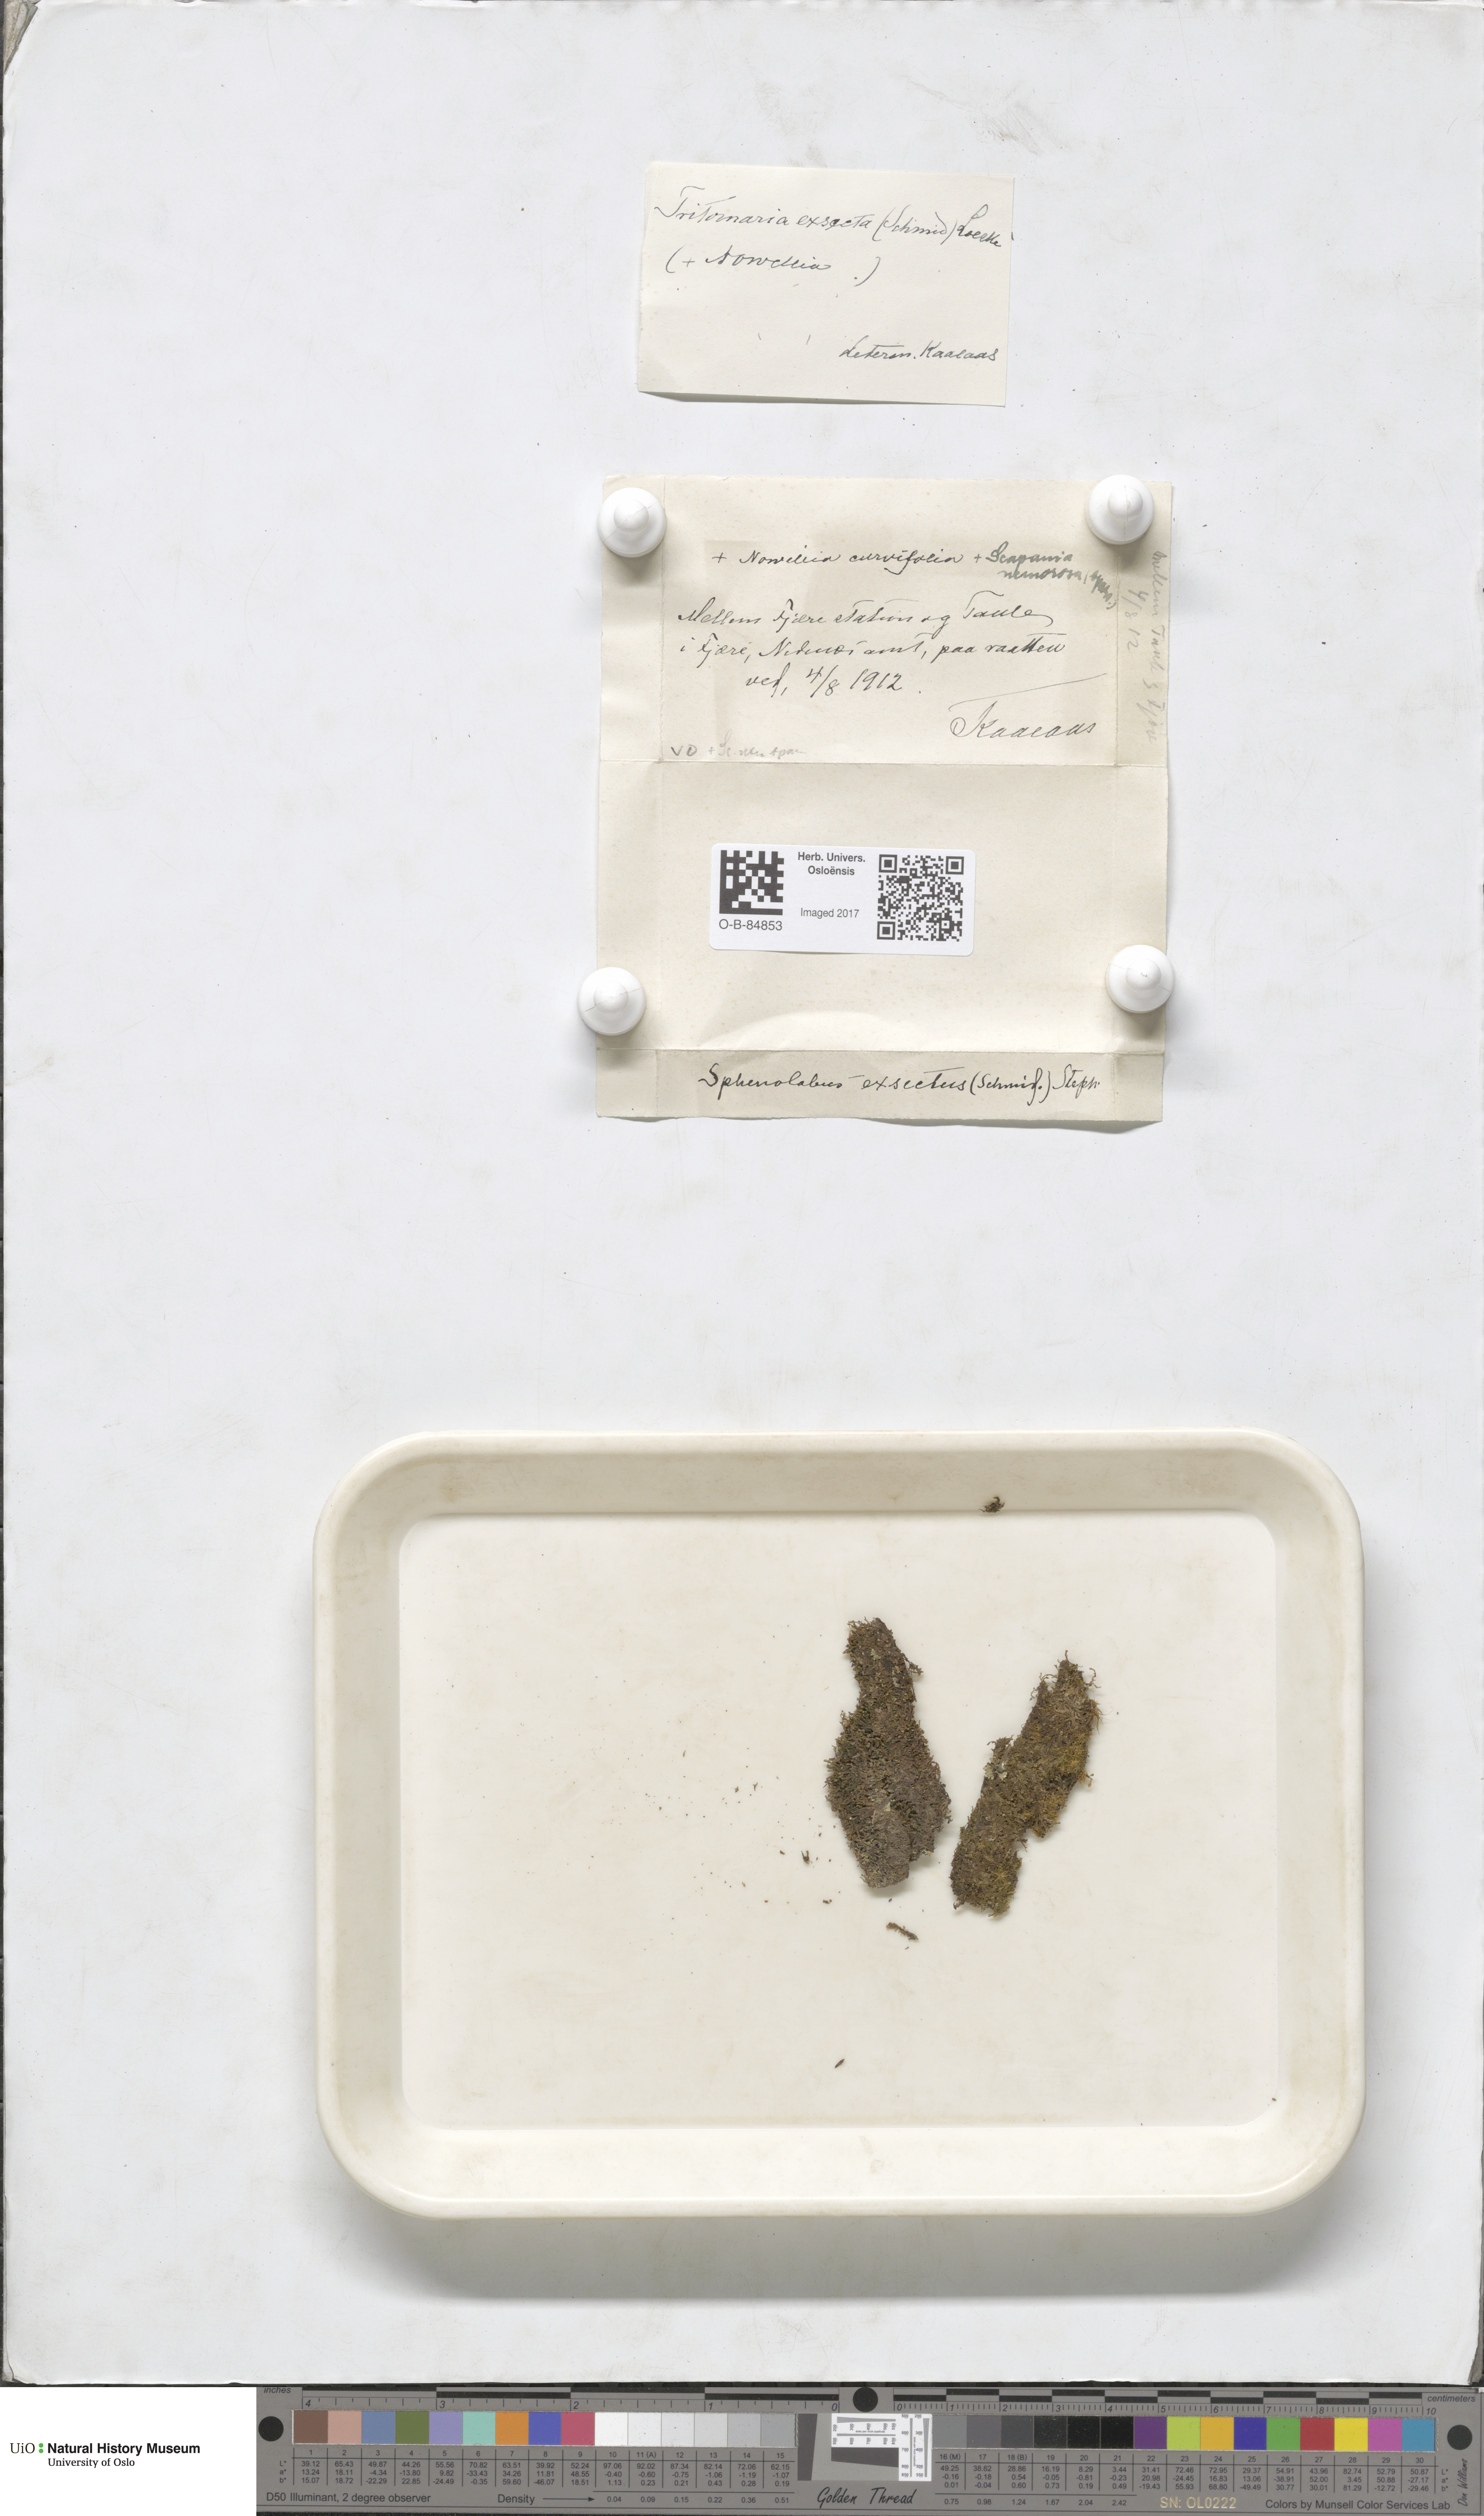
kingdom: Plantae
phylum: Marchantiophyta
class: Jungermanniopsida
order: Jungermanniales
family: Lophoziaceae
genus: Tritomaria
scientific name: Tritomaria exsecta
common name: Cut notchwort
